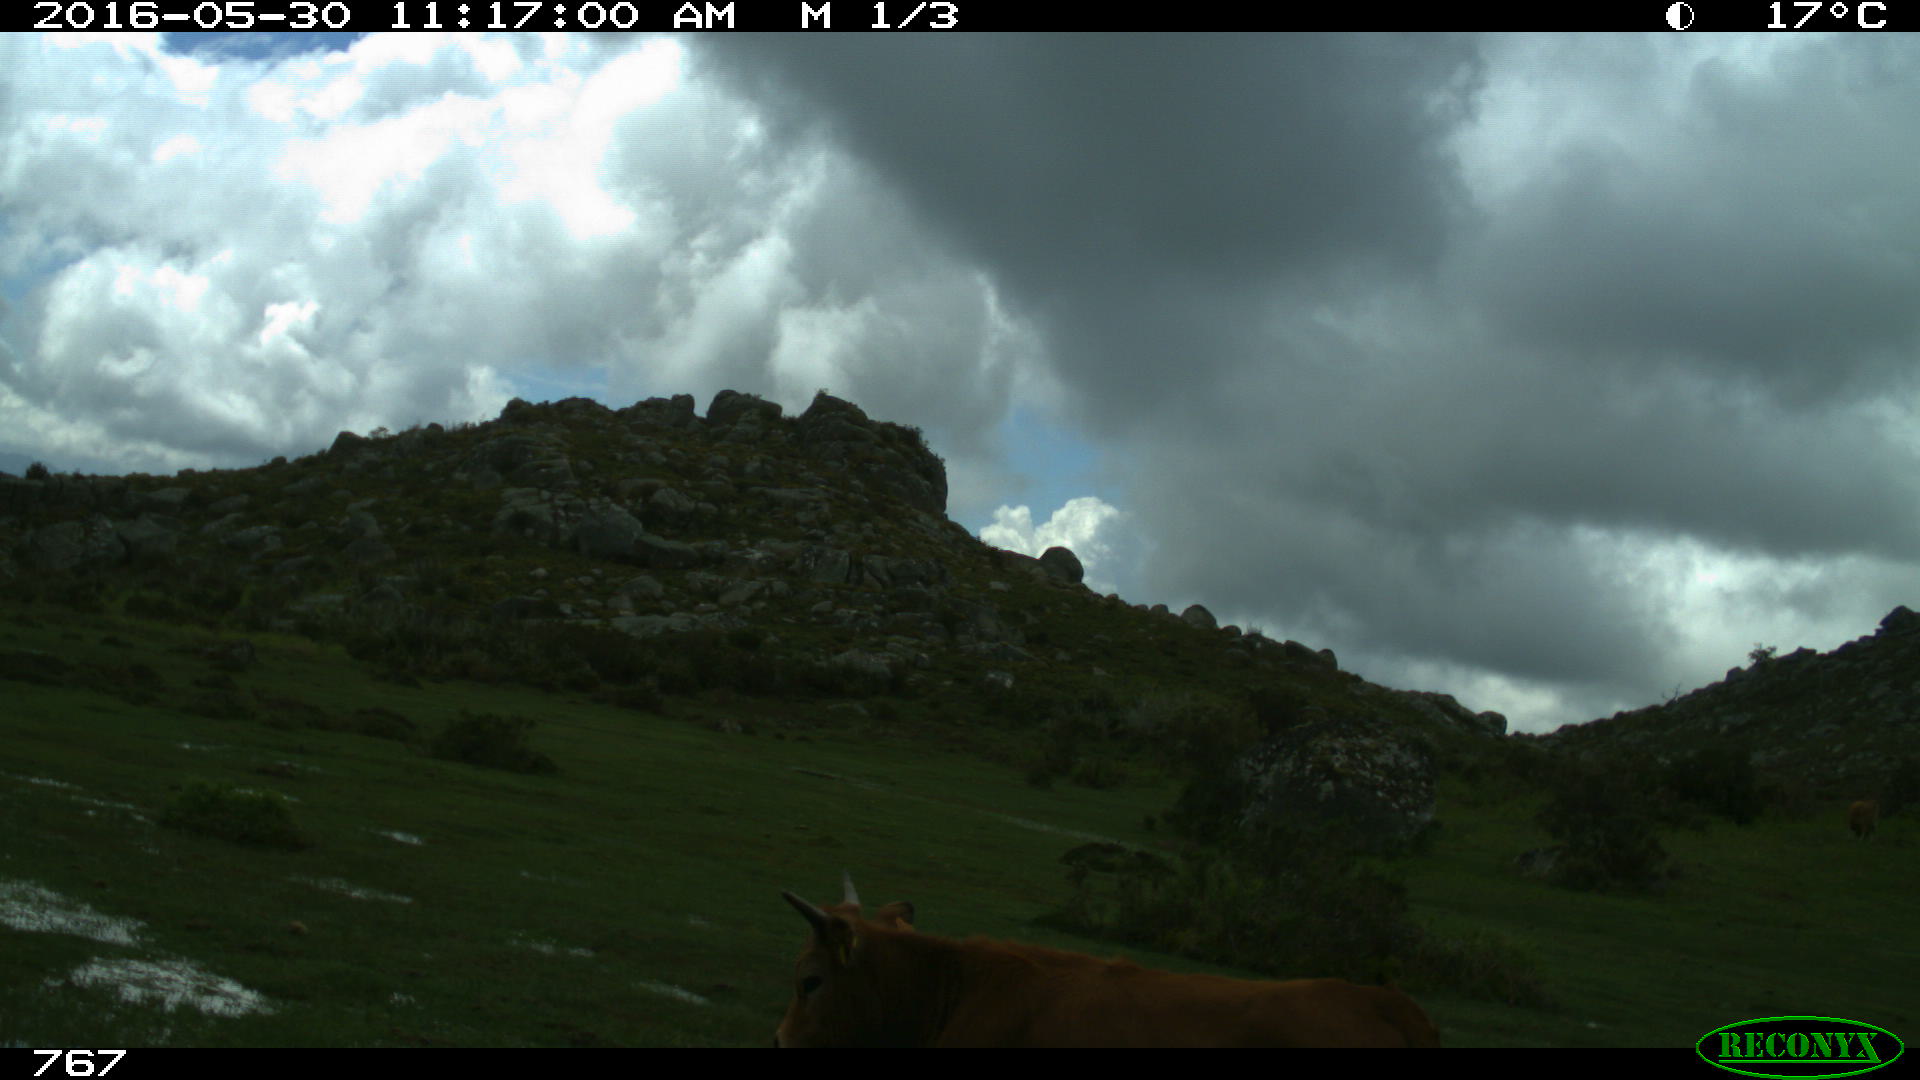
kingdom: Animalia
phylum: Chordata
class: Mammalia
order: Artiodactyla
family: Bovidae
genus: Bos
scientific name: Bos taurus
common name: Domesticated cattle
